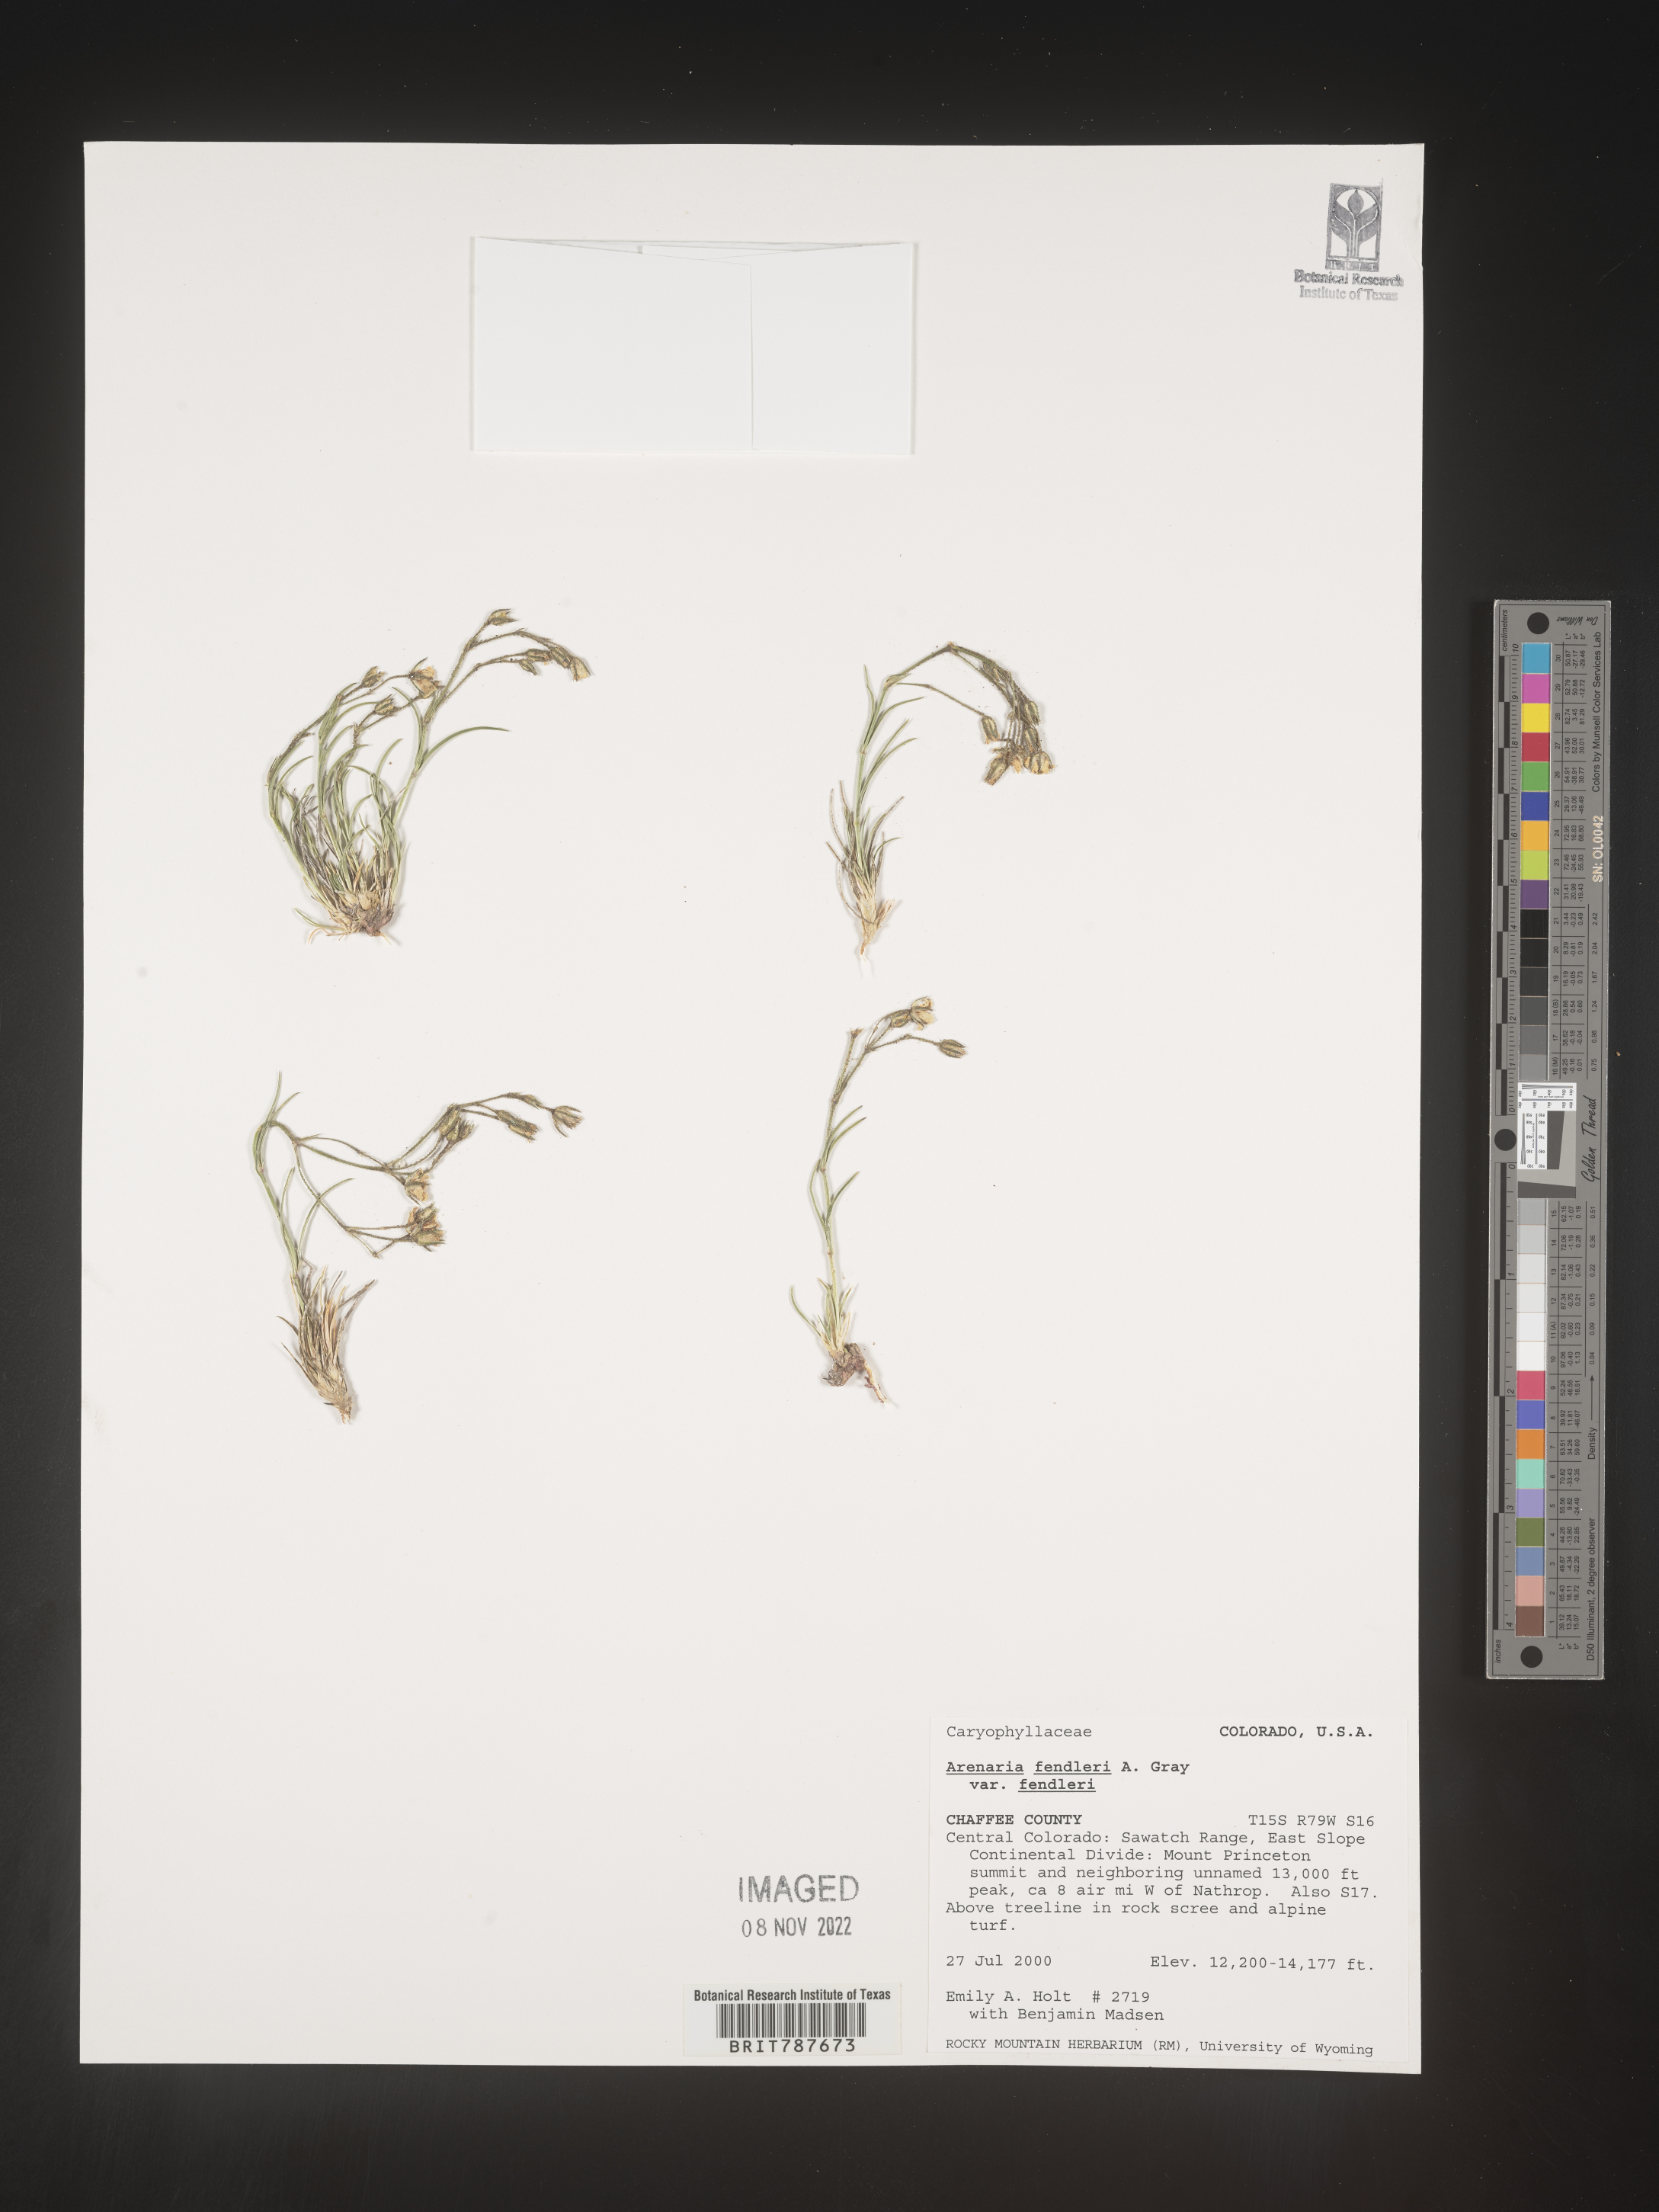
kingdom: Plantae
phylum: Tracheophyta
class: Magnoliopsida
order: Caryophyllales
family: Caryophyllaceae
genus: Arenaria
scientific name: Arenaria
